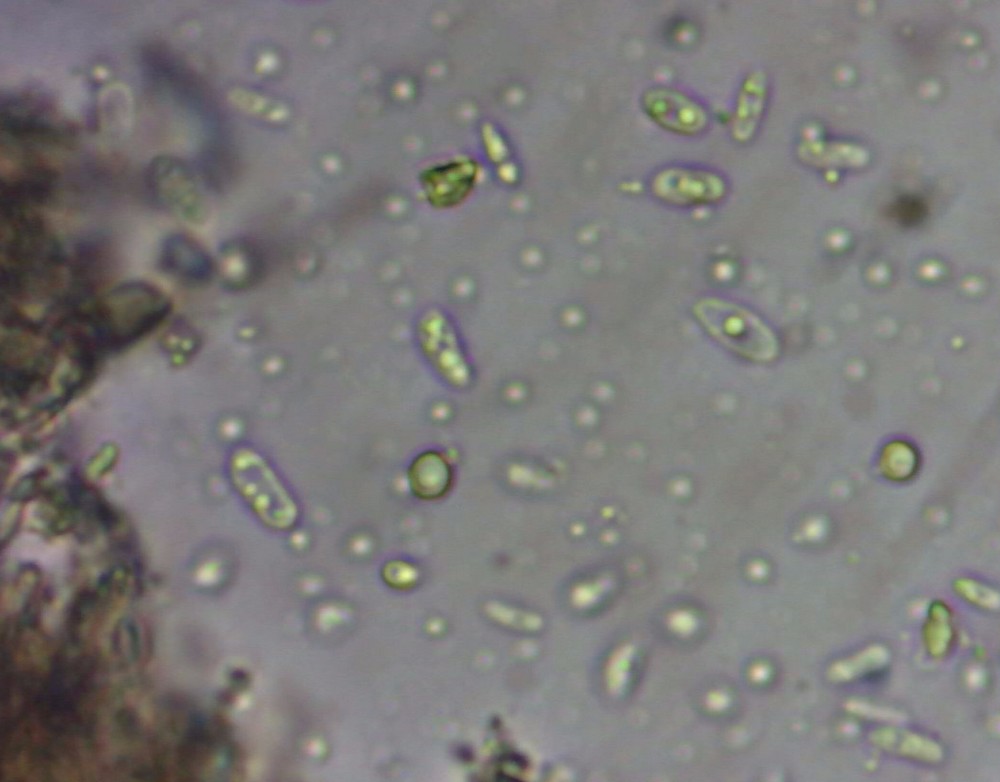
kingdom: Fungi
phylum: Ascomycota
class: Eurotiomycetes
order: Eurotiales
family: Aspergillaceae
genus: Penicillium
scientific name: Penicillium
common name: penselskimmel
